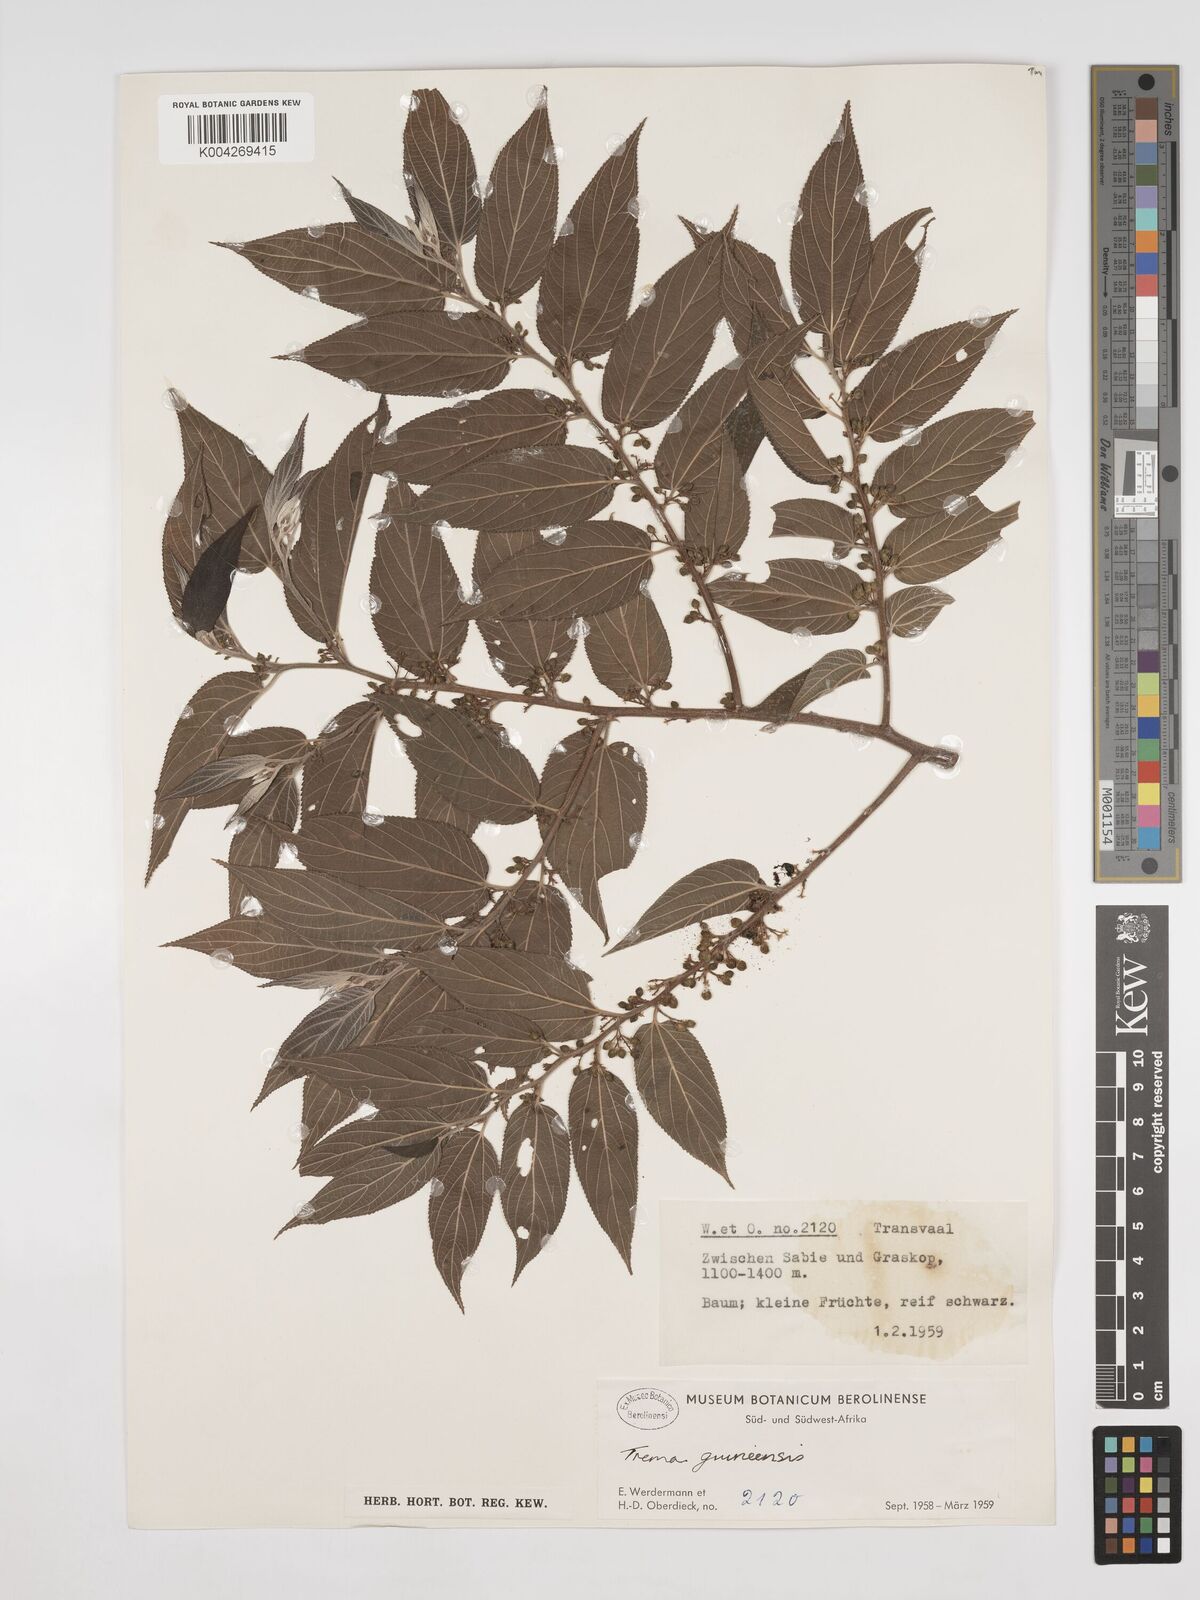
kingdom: Plantae
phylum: Tracheophyta
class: Magnoliopsida
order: Rosales
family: Cannabaceae
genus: Trema
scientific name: Trema orientale
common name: Indian charcoal tree
